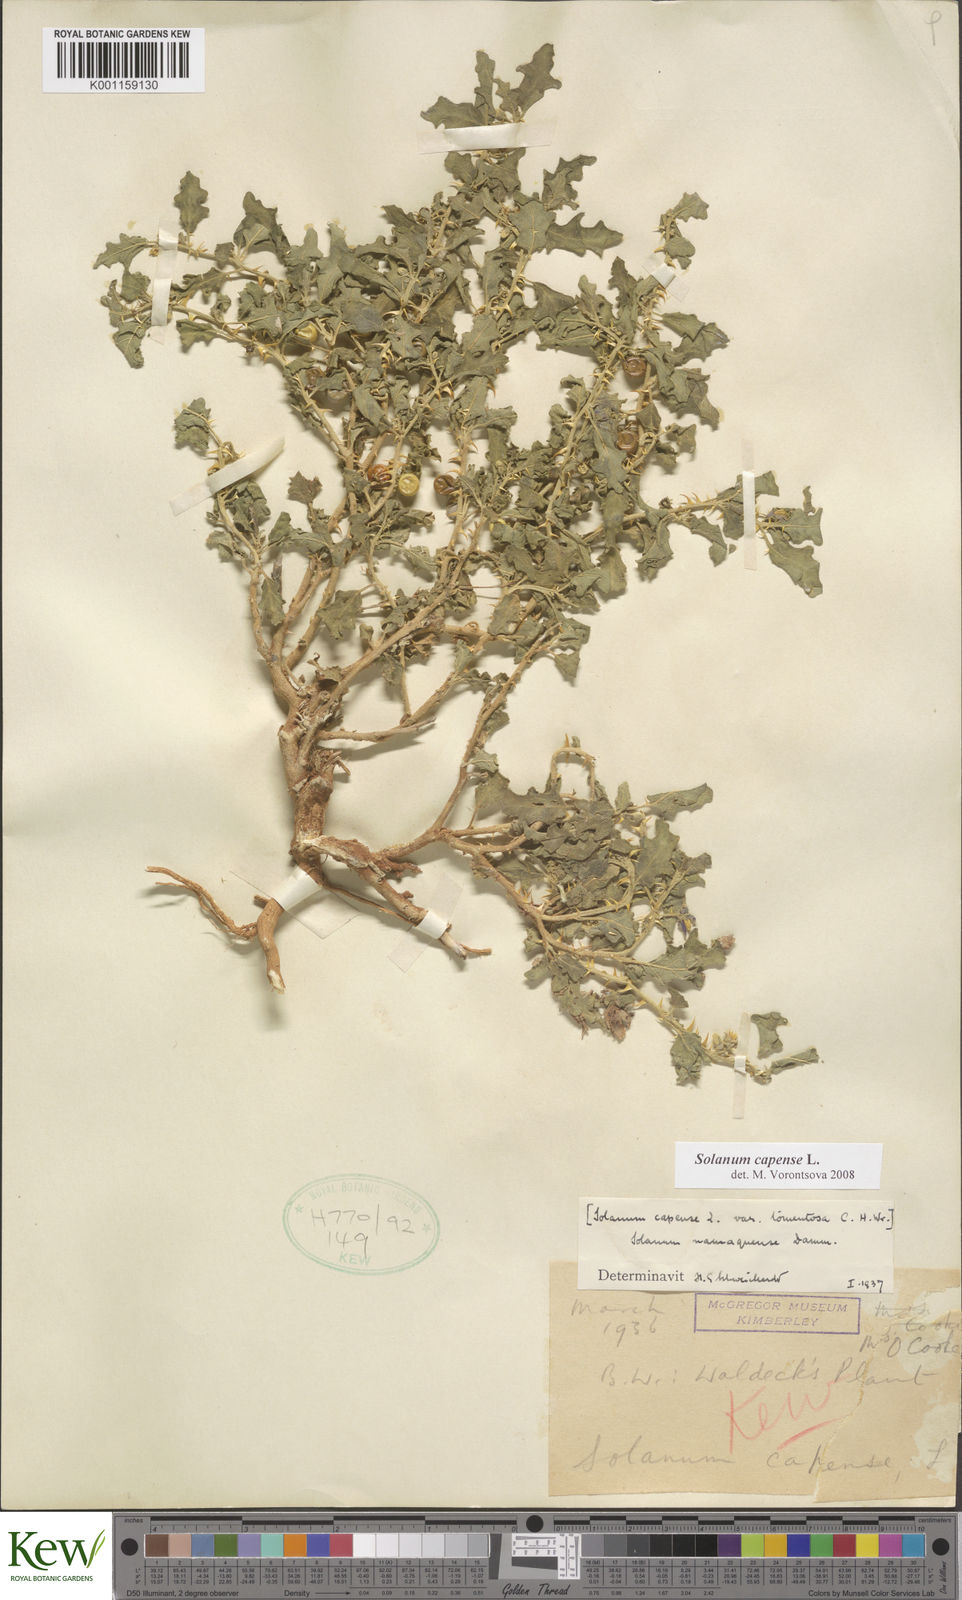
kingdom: Plantae
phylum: Tracheophyta
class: Magnoliopsida
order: Solanales
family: Solanaceae
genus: Solanum
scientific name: Solanum capense
